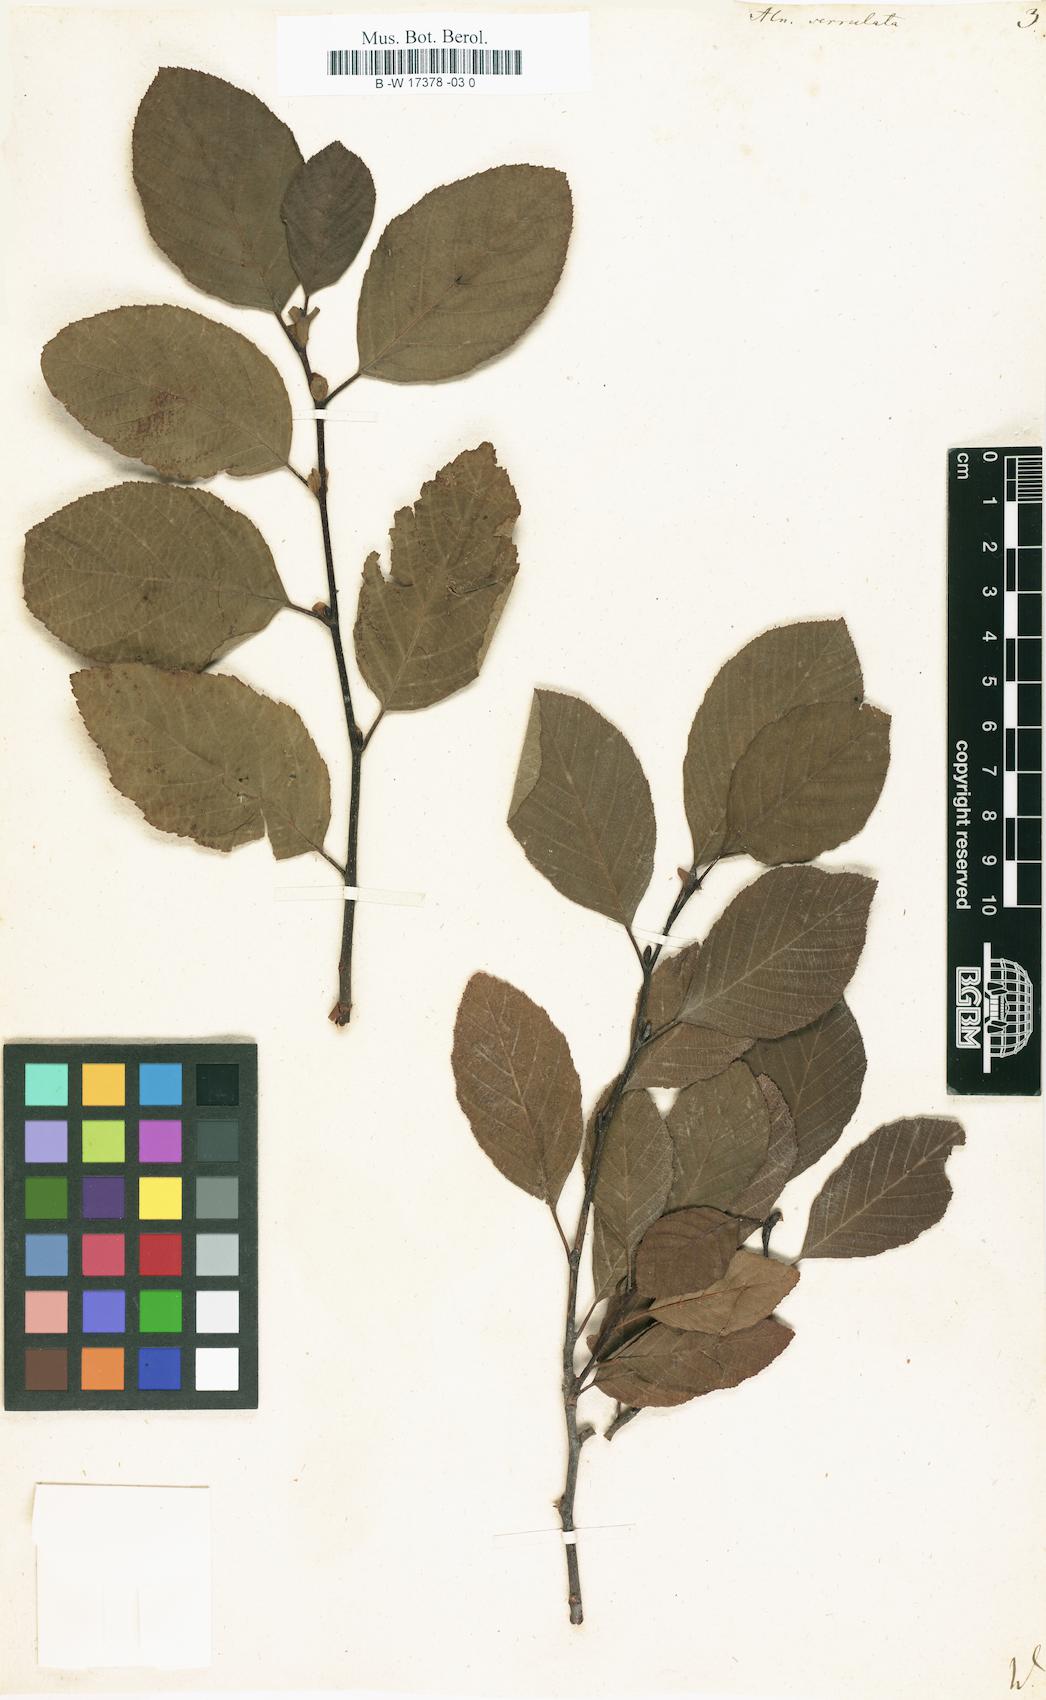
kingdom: Plantae
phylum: Tracheophyta
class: Magnoliopsida
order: Fagales
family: Betulaceae
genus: Alnus
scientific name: Alnus serrulata
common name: Hazel alder
